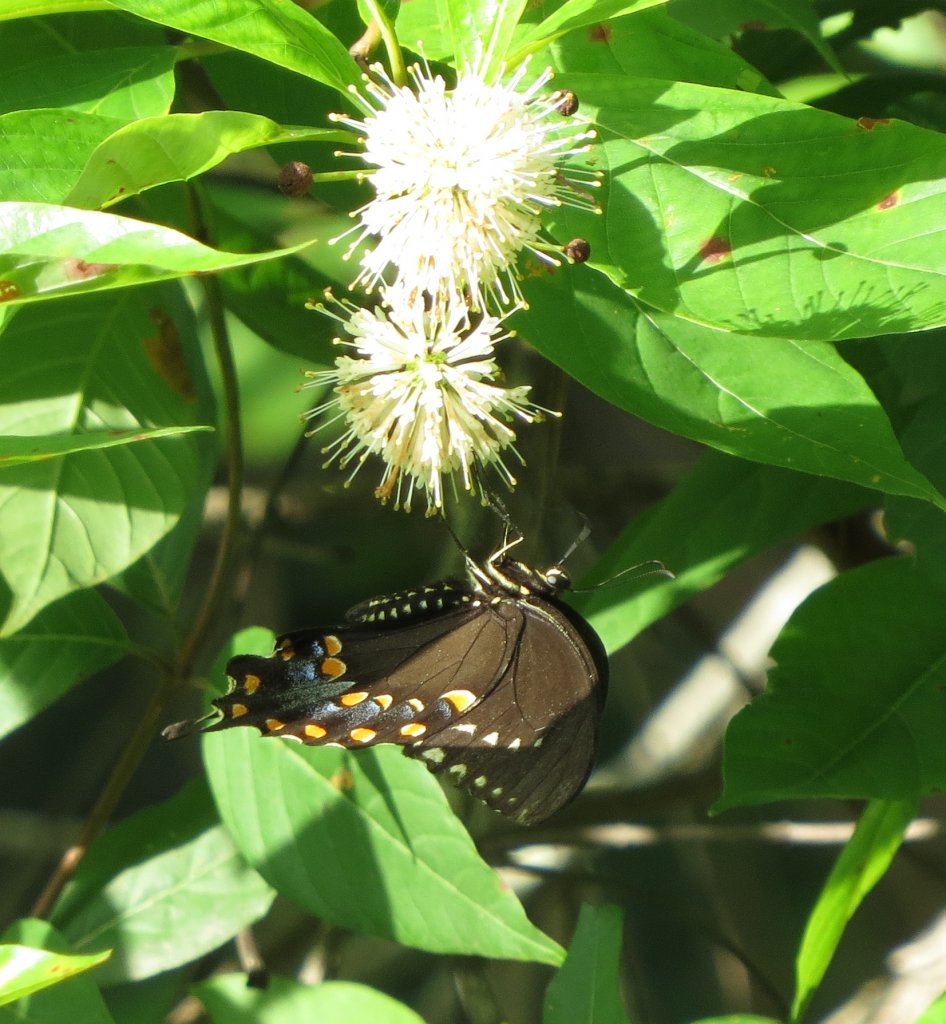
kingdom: Animalia
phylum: Arthropoda
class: Insecta
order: Lepidoptera
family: Papilionidae
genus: Pterourus
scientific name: Pterourus troilus
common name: Spicebush Swallowtail
